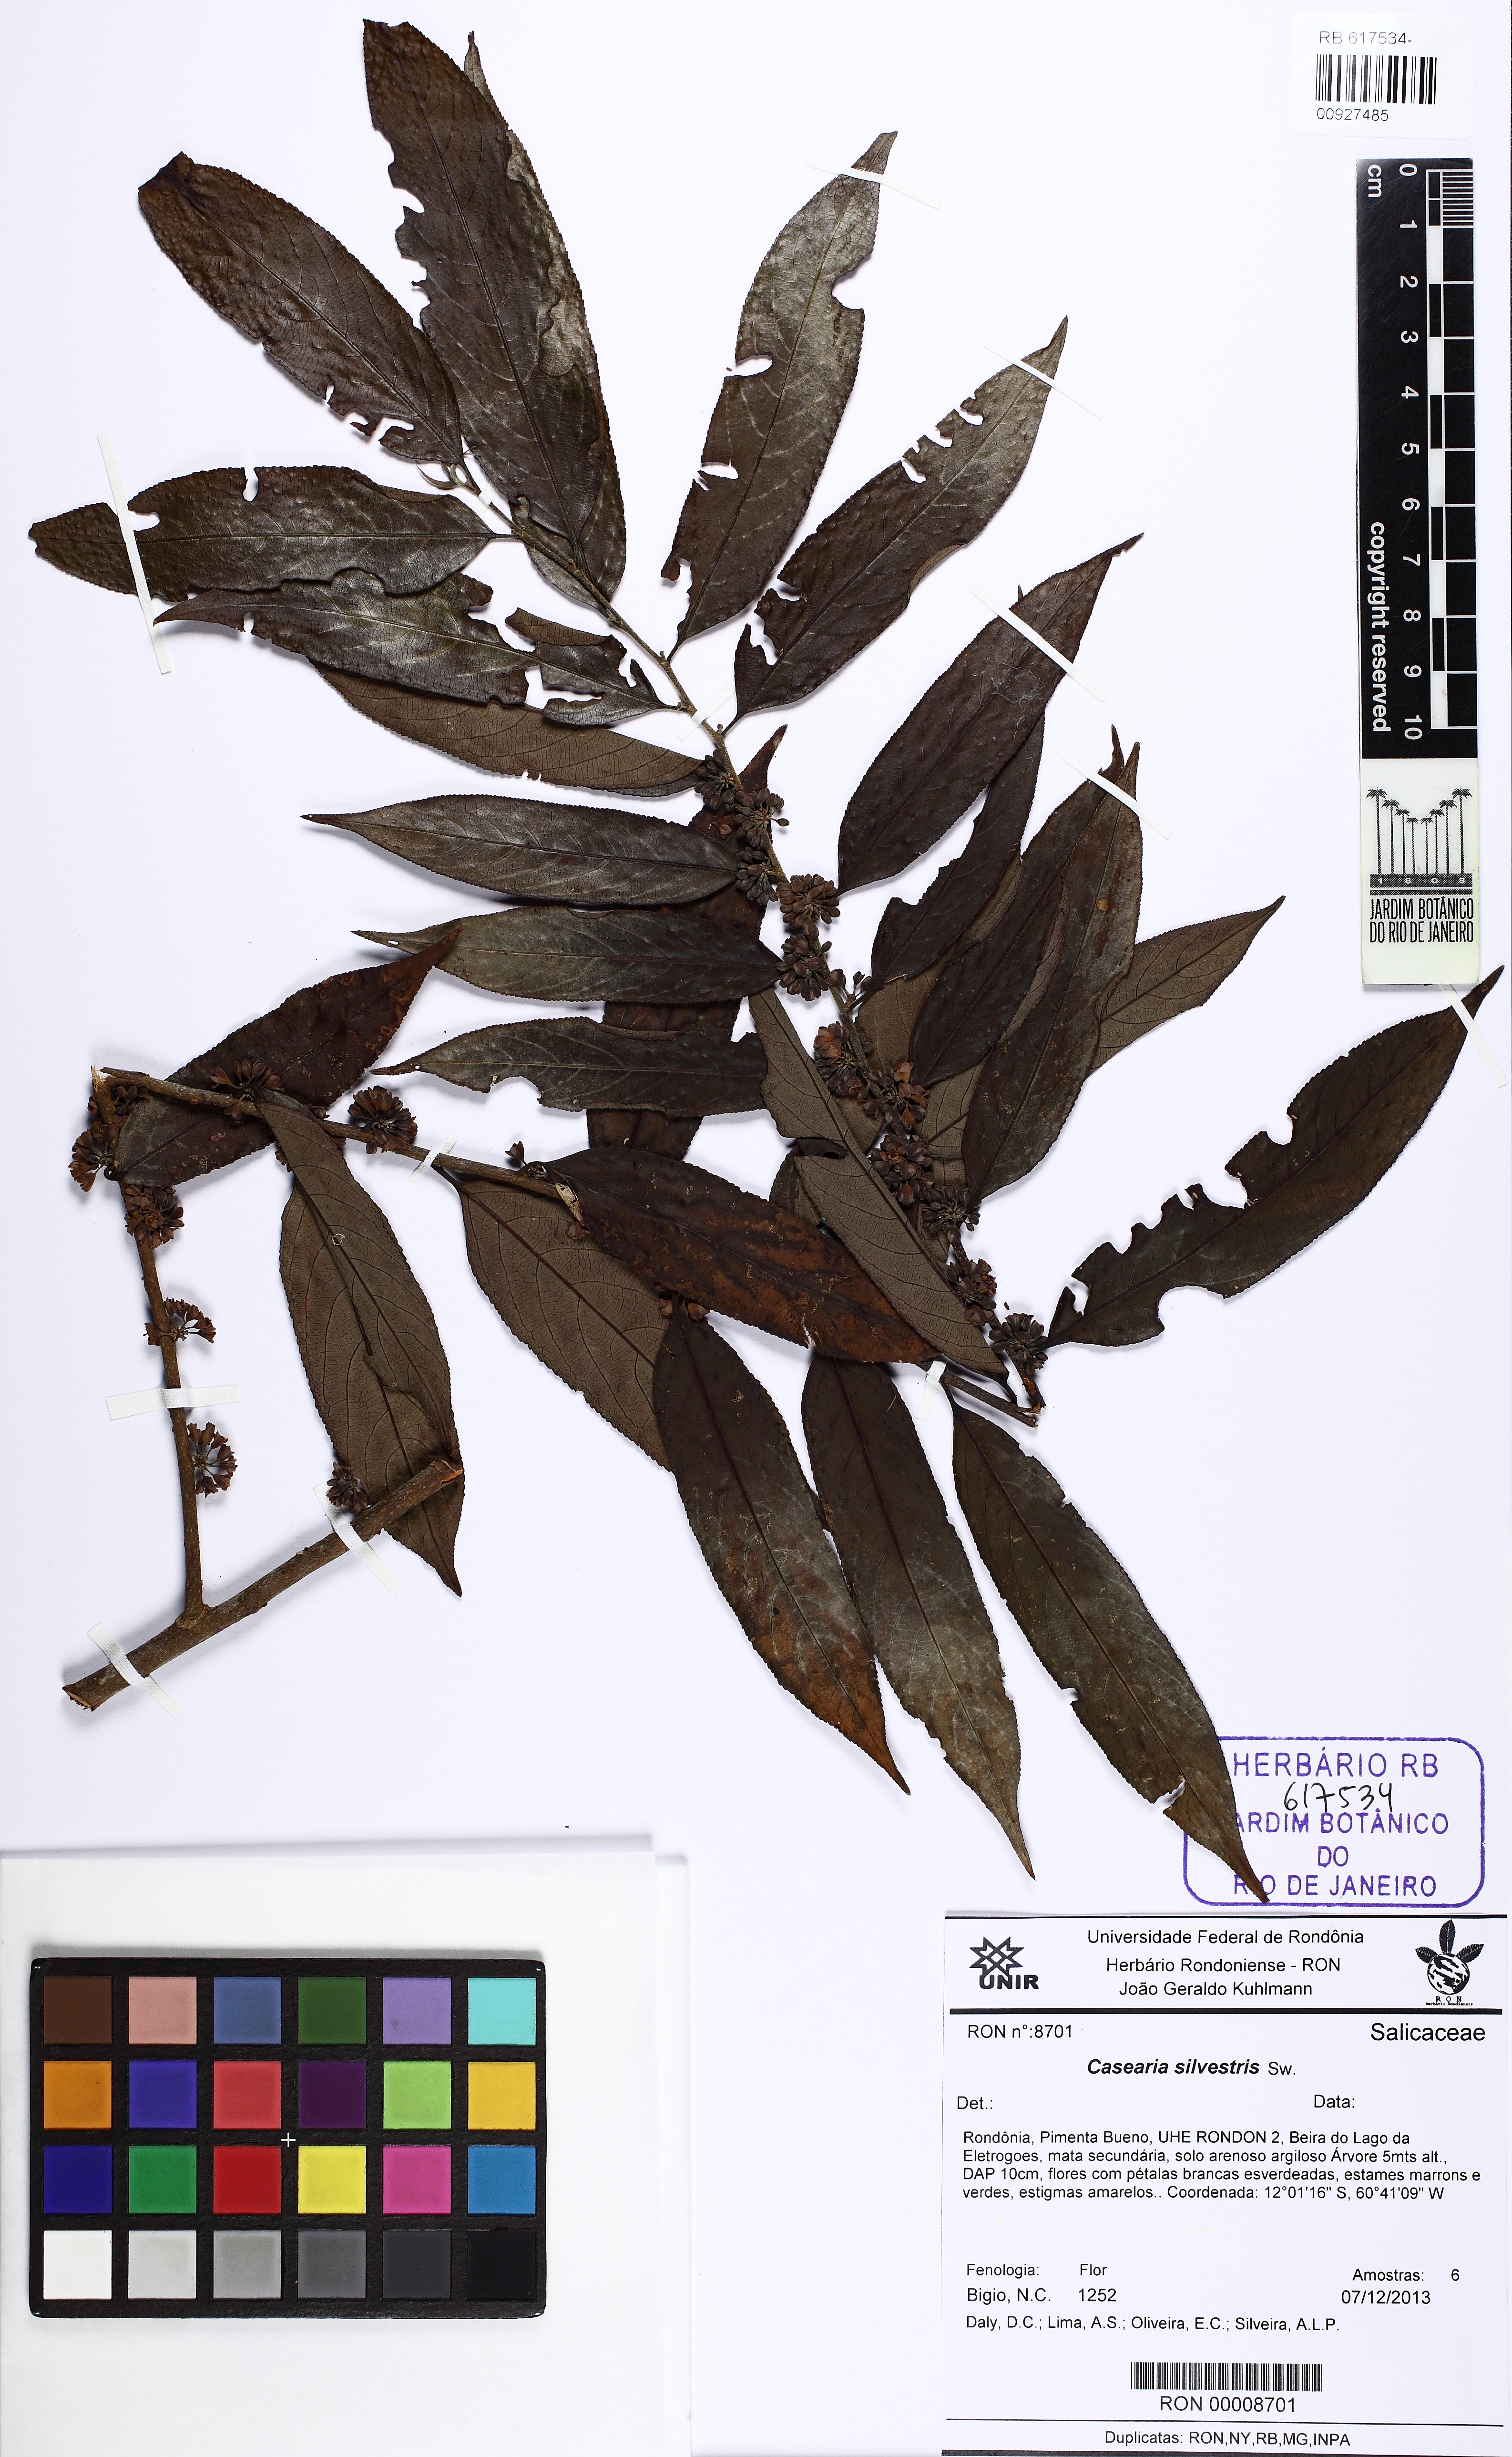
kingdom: Plantae
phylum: Tracheophyta
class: Magnoliopsida
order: Malpighiales
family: Salicaceae
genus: Casearia
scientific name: Casearia sylvestris
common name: Wild sage
